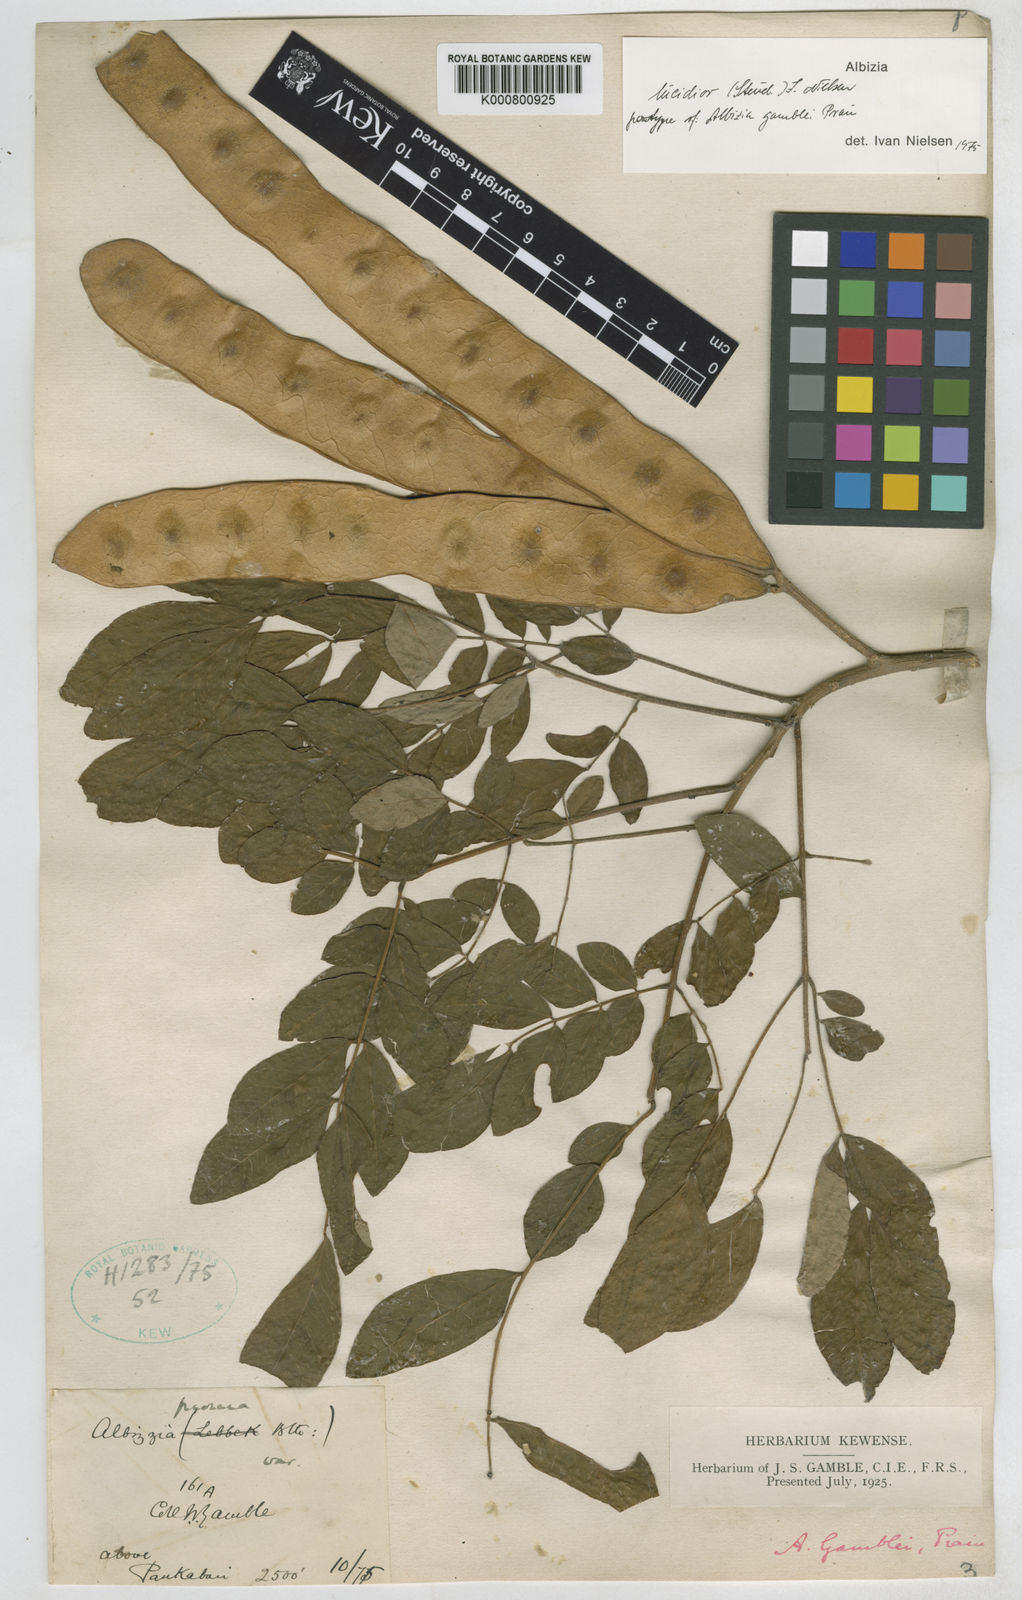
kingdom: Plantae
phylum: Tracheophyta
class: Magnoliopsida
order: Fabales
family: Fabaceae
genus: Albizia
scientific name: Albizia lucidior
